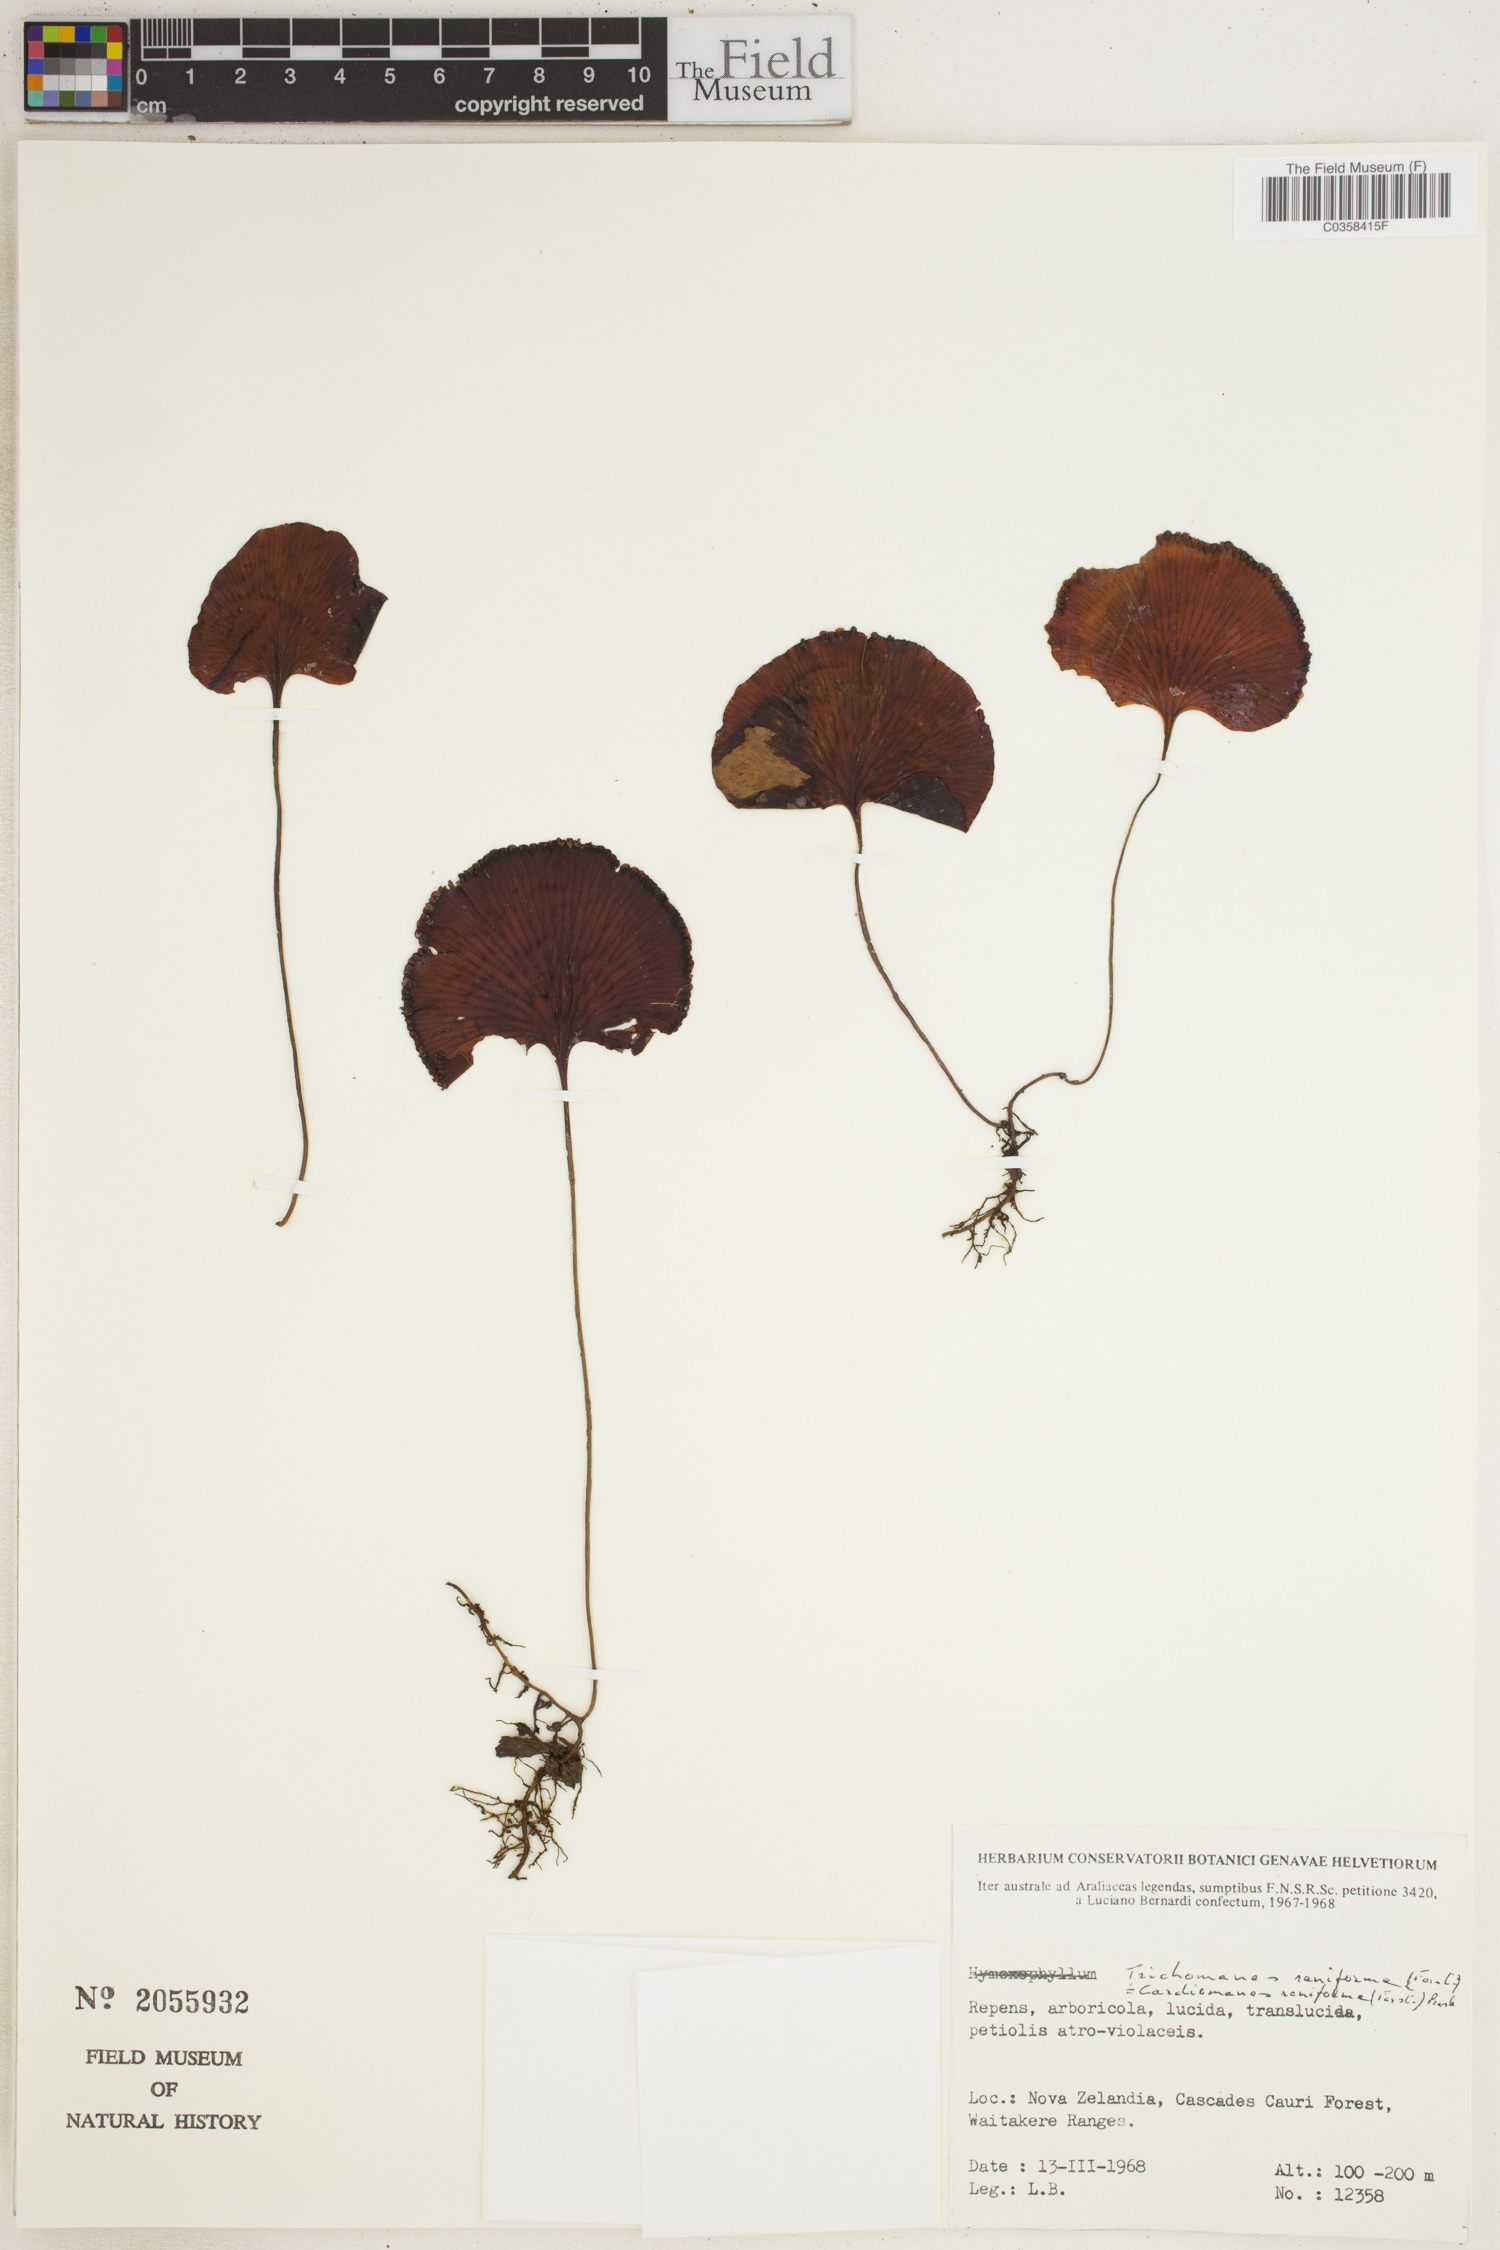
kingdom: Plantae
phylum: Tracheophyta
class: Polypodiopsida
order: Hymenophyllales
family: Hymenophyllaceae
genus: Hymenophyllum
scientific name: Hymenophyllum nephrophyllum
